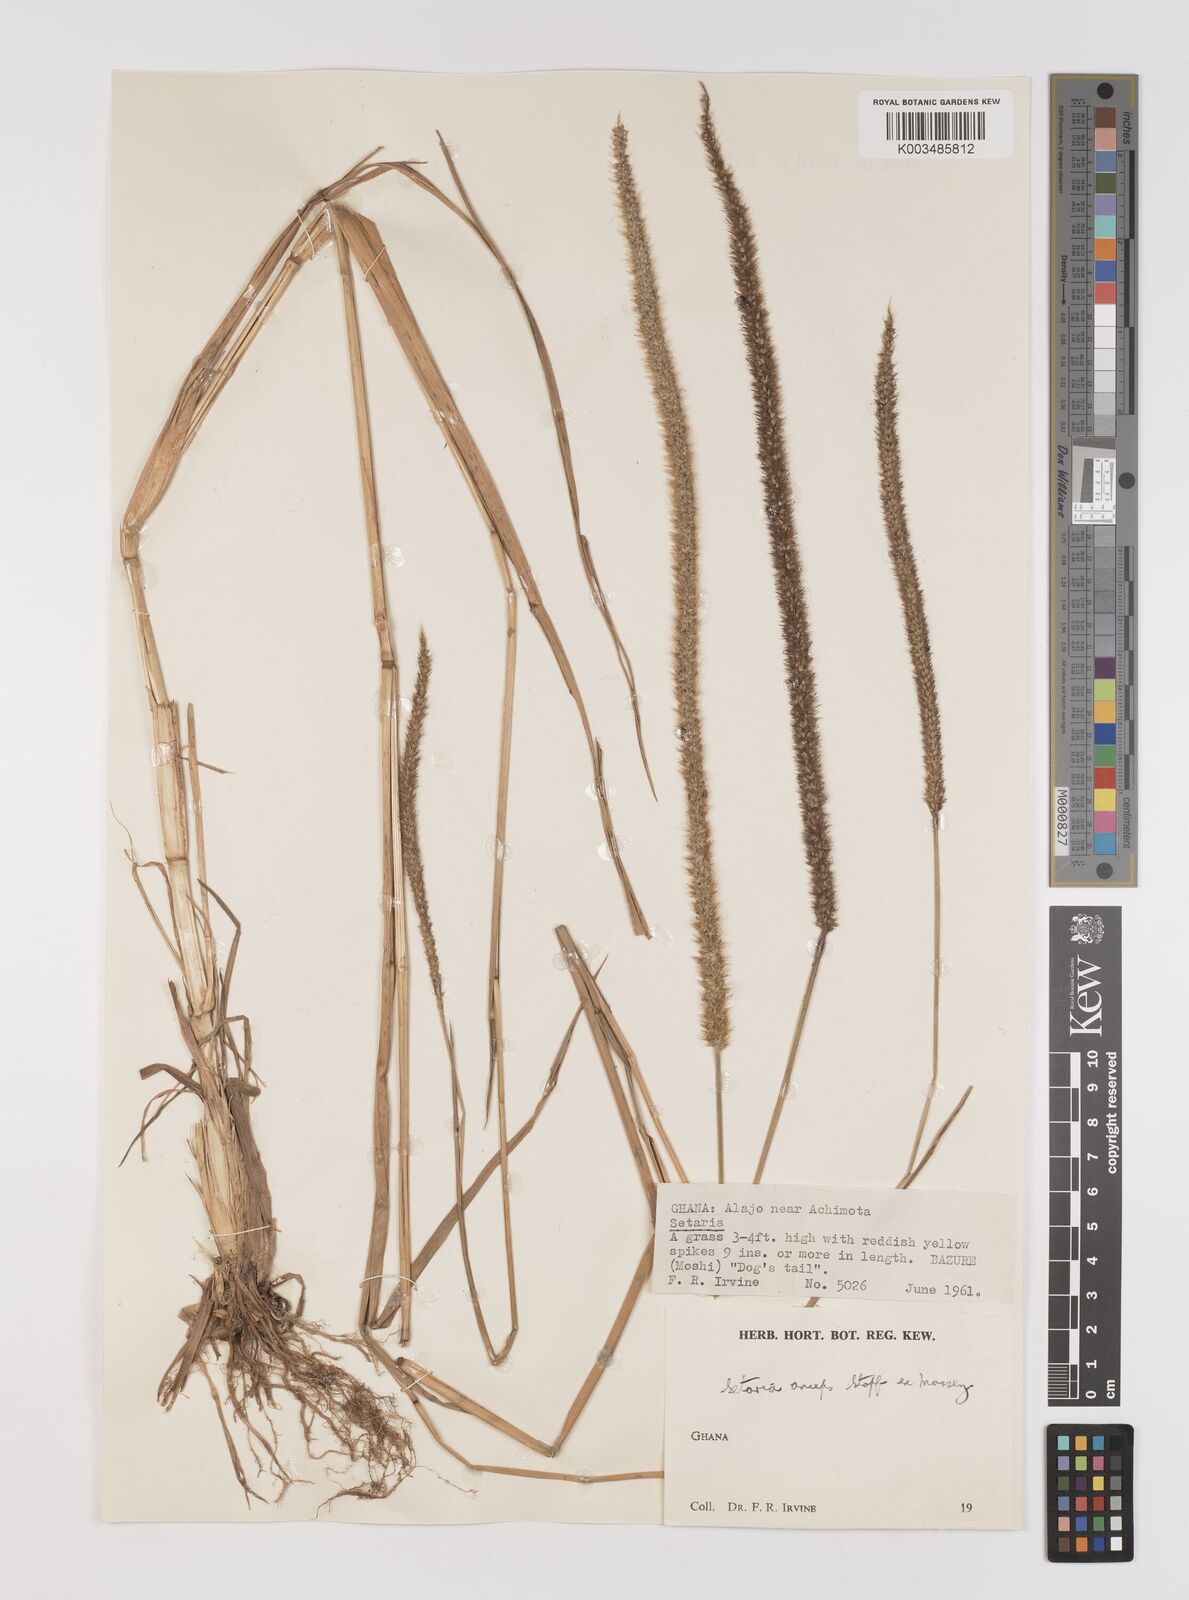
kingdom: Plantae
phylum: Tracheophyta
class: Liliopsida
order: Poales
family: Poaceae
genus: Setaria
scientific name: Setaria sphacelata
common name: African bristlegrass
